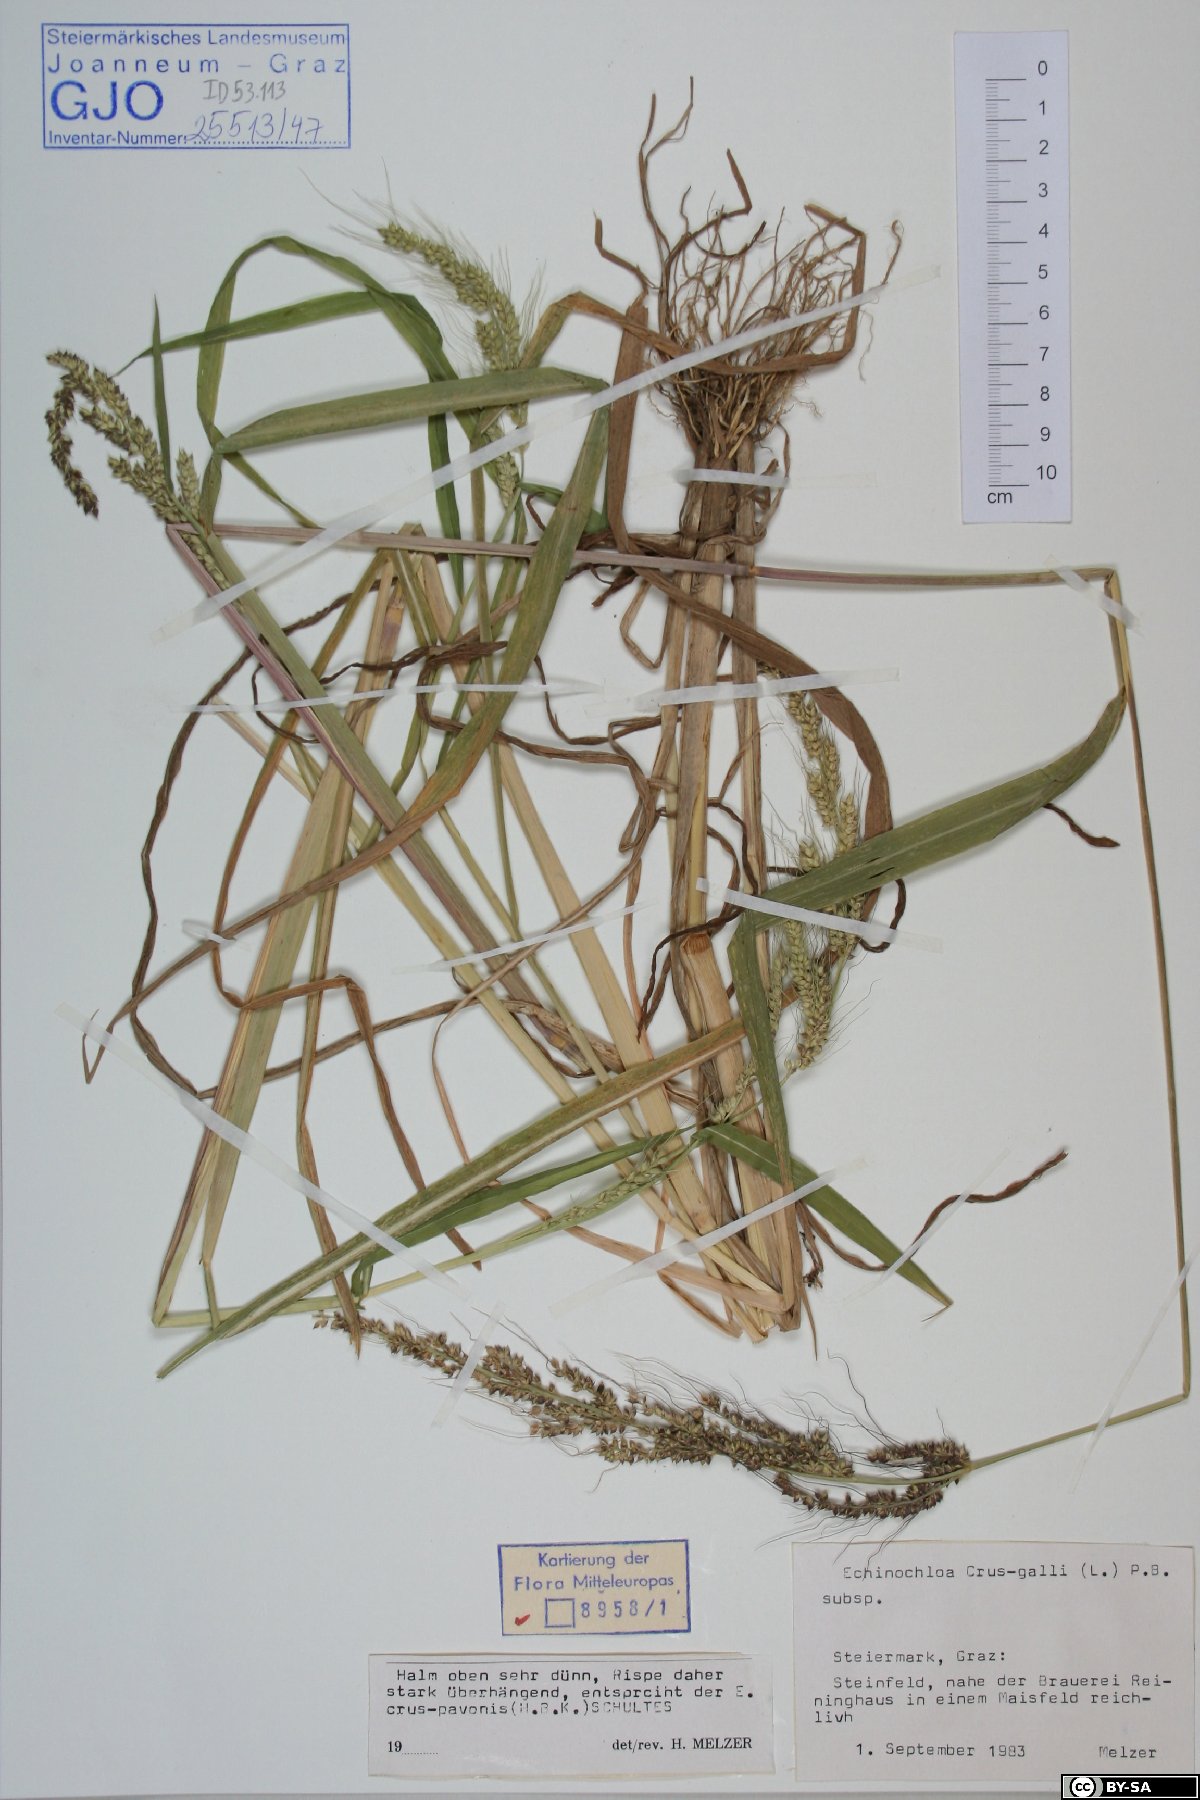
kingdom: Plantae
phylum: Tracheophyta
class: Liliopsida
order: Poales
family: Poaceae
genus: Echinochloa
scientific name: Echinochloa crus-galli
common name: Cockspur
